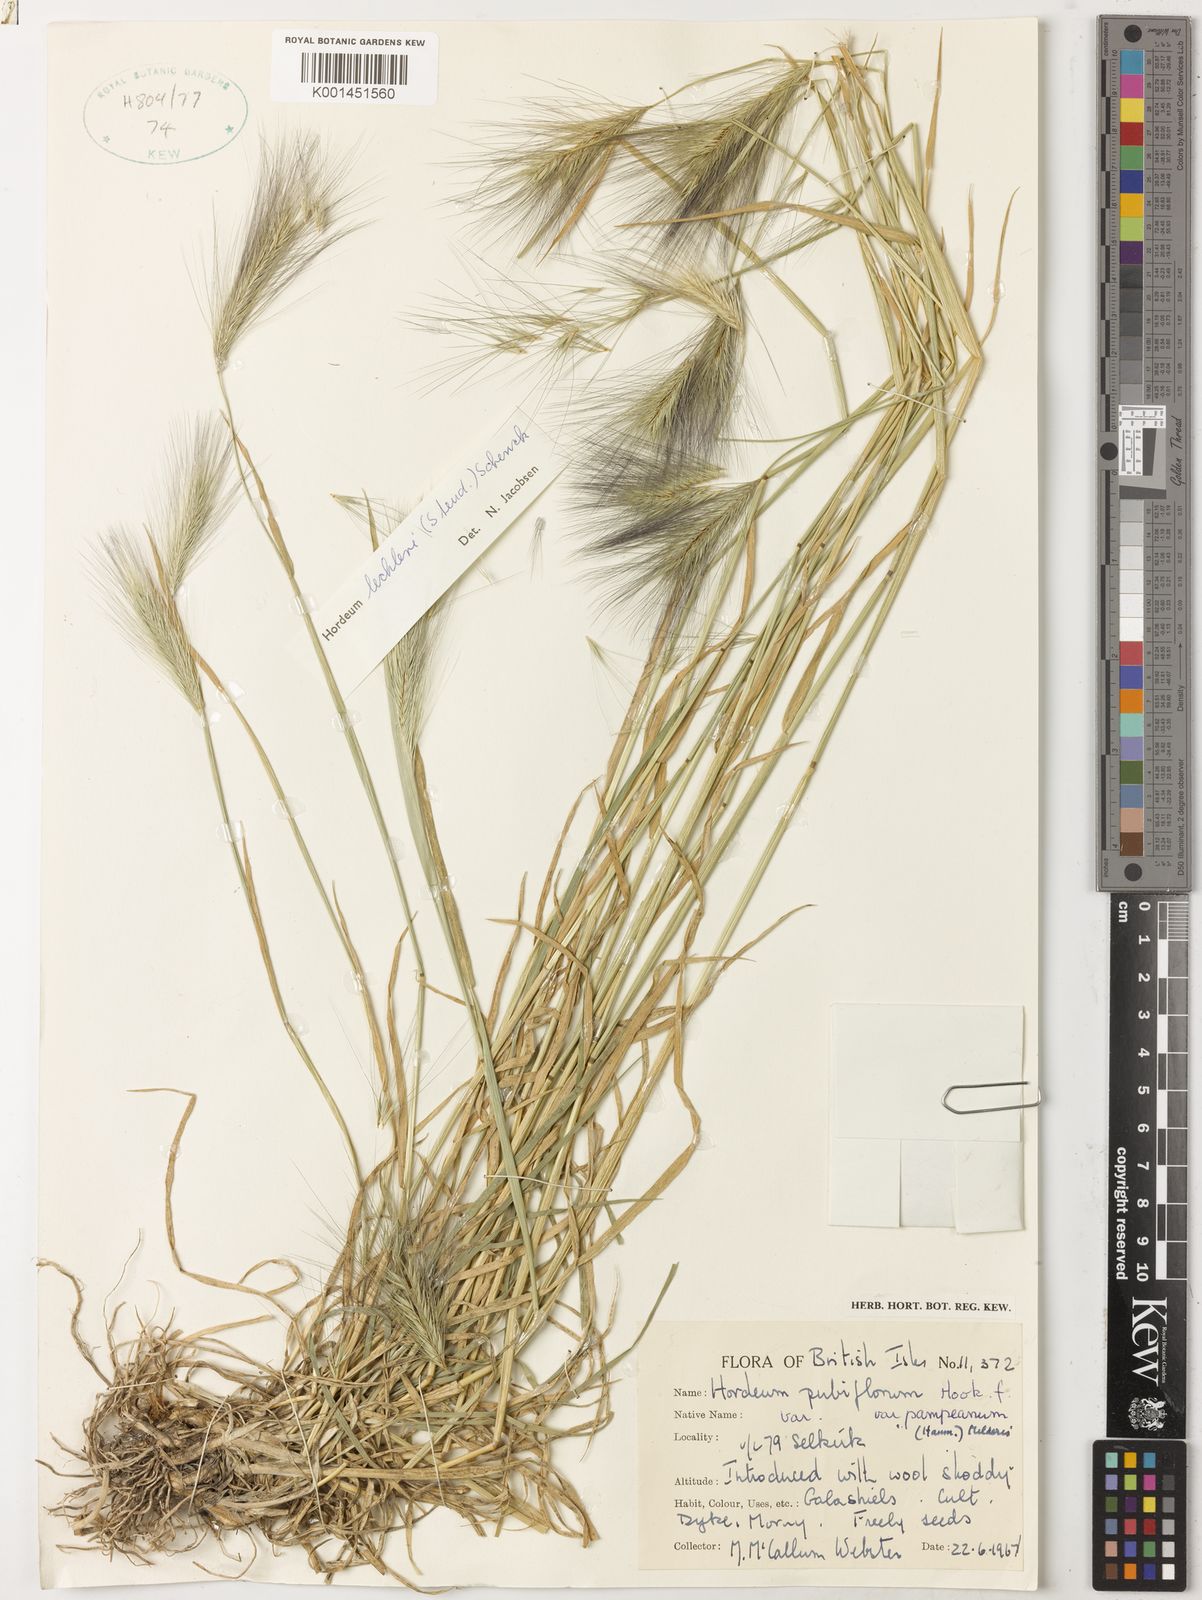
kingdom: Plantae
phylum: Tracheophyta
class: Liliopsida
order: Poales
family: Poaceae
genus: Hordeum
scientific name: Hordeum lechleri
